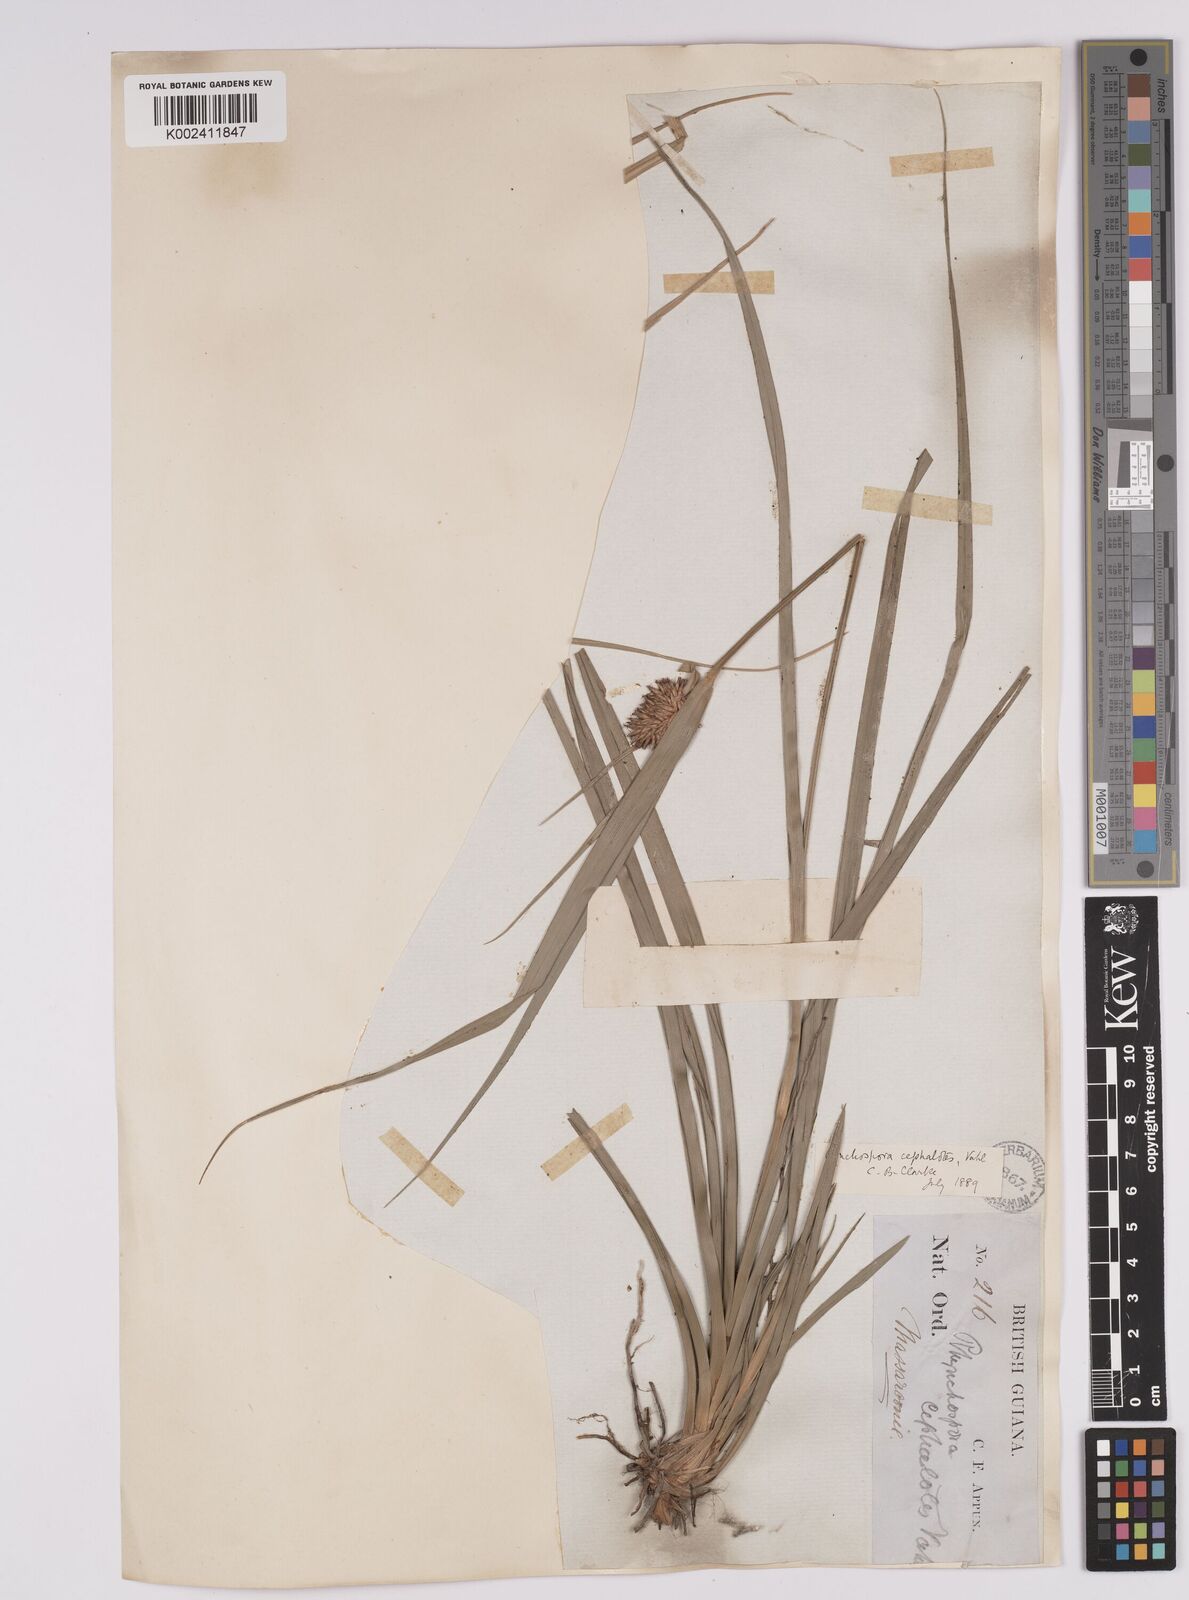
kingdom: Plantae
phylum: Tracheophyta
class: Liliopsida
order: Poales
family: Cyperaceae
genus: Rhynchospora
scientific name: Rhynchospora cephalotes
